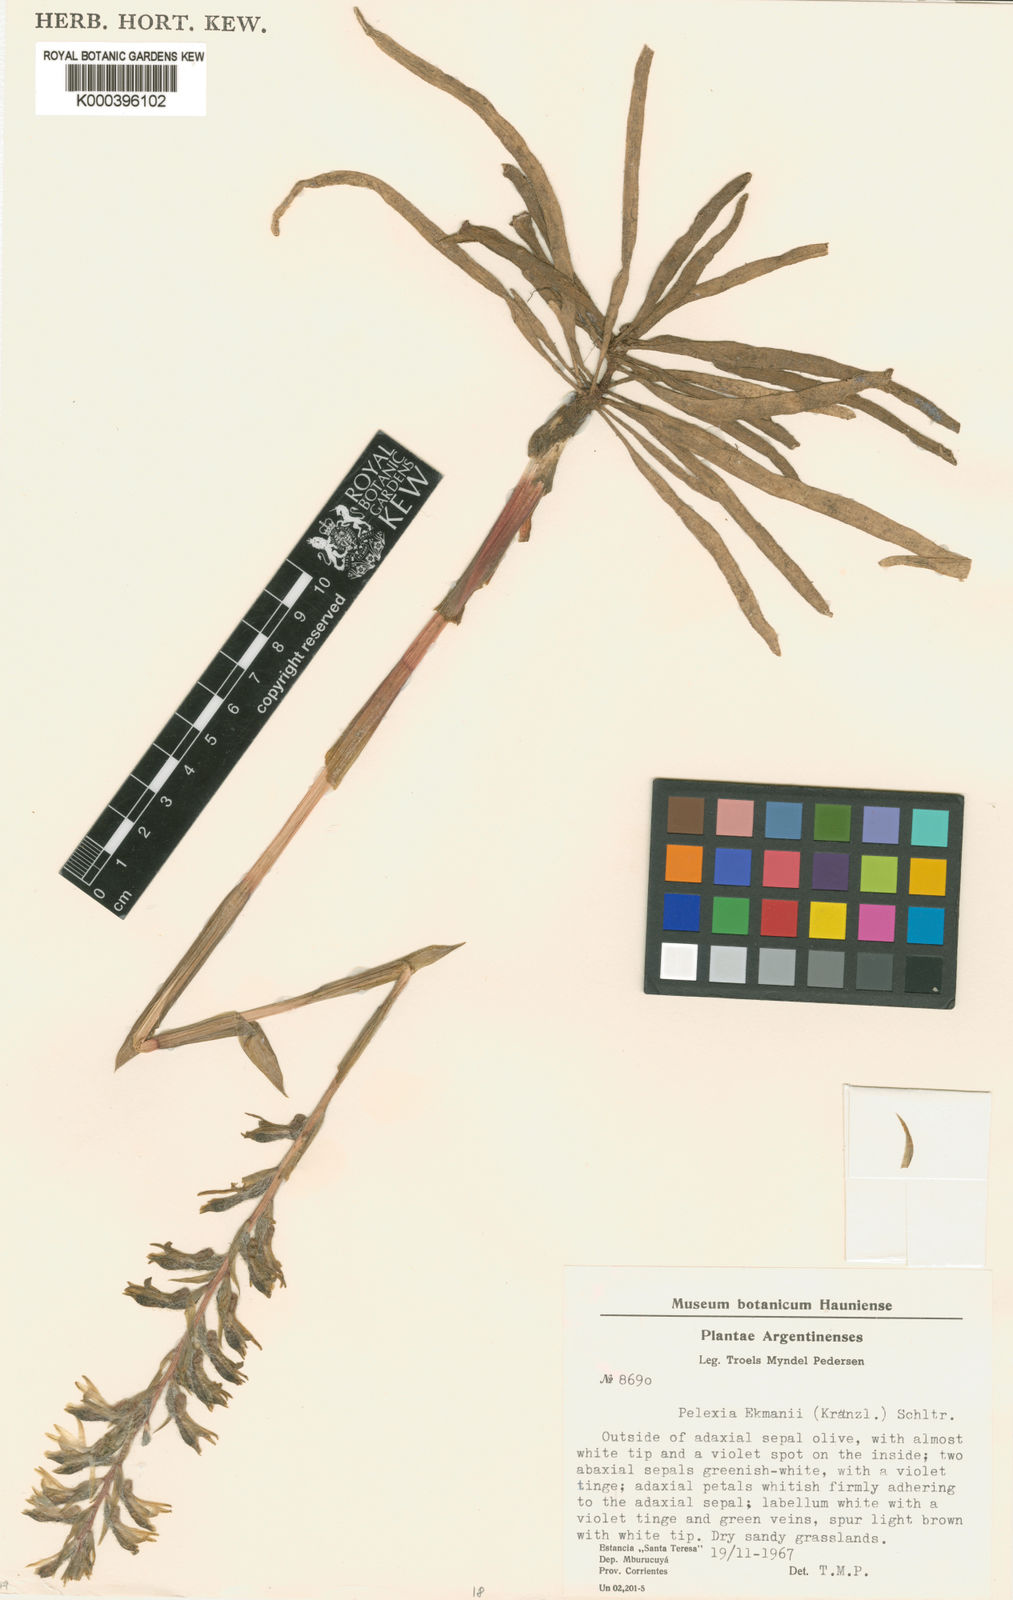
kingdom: Plantae
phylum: Tracheophyta
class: Liliopsida
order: Asparagales
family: Orchidaceae
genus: Pelexia
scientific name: Pelexia ekmanii
